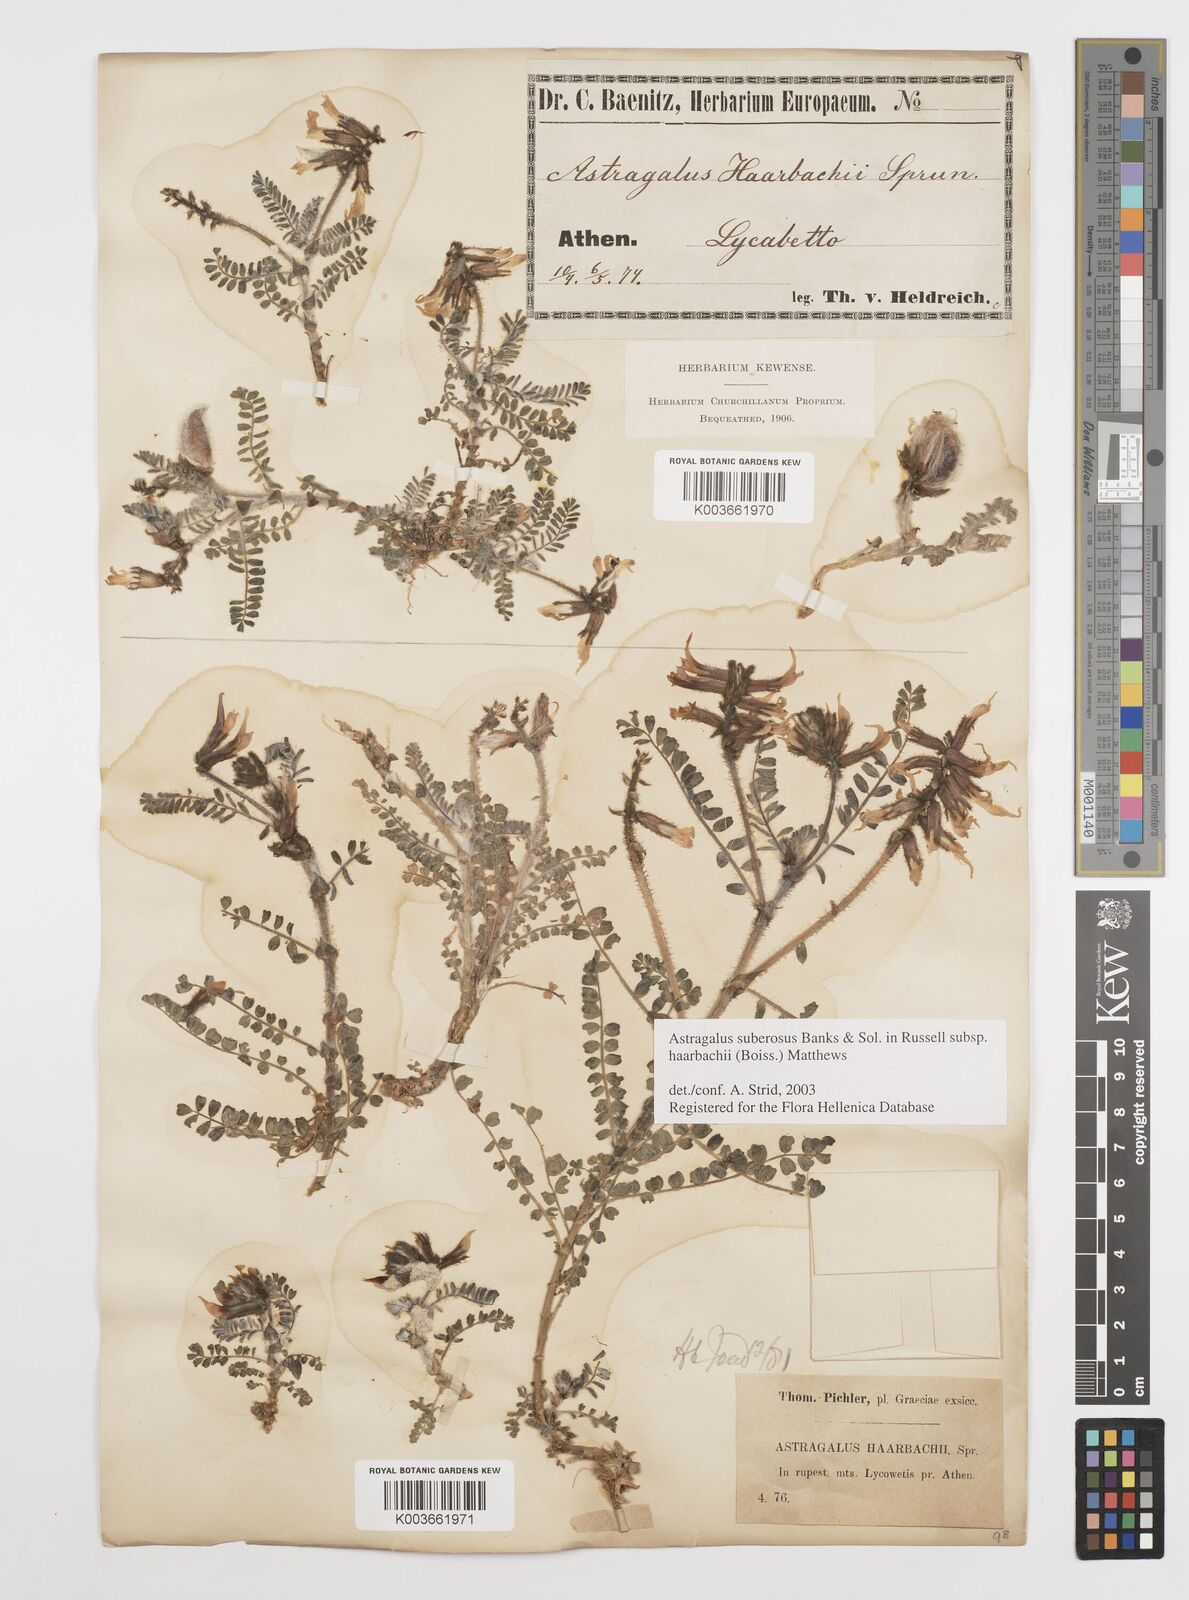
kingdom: Plantae
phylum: Tracheophyta
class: Magnoliopsida
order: Fabales
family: Fabaceae
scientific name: Fabaceae
